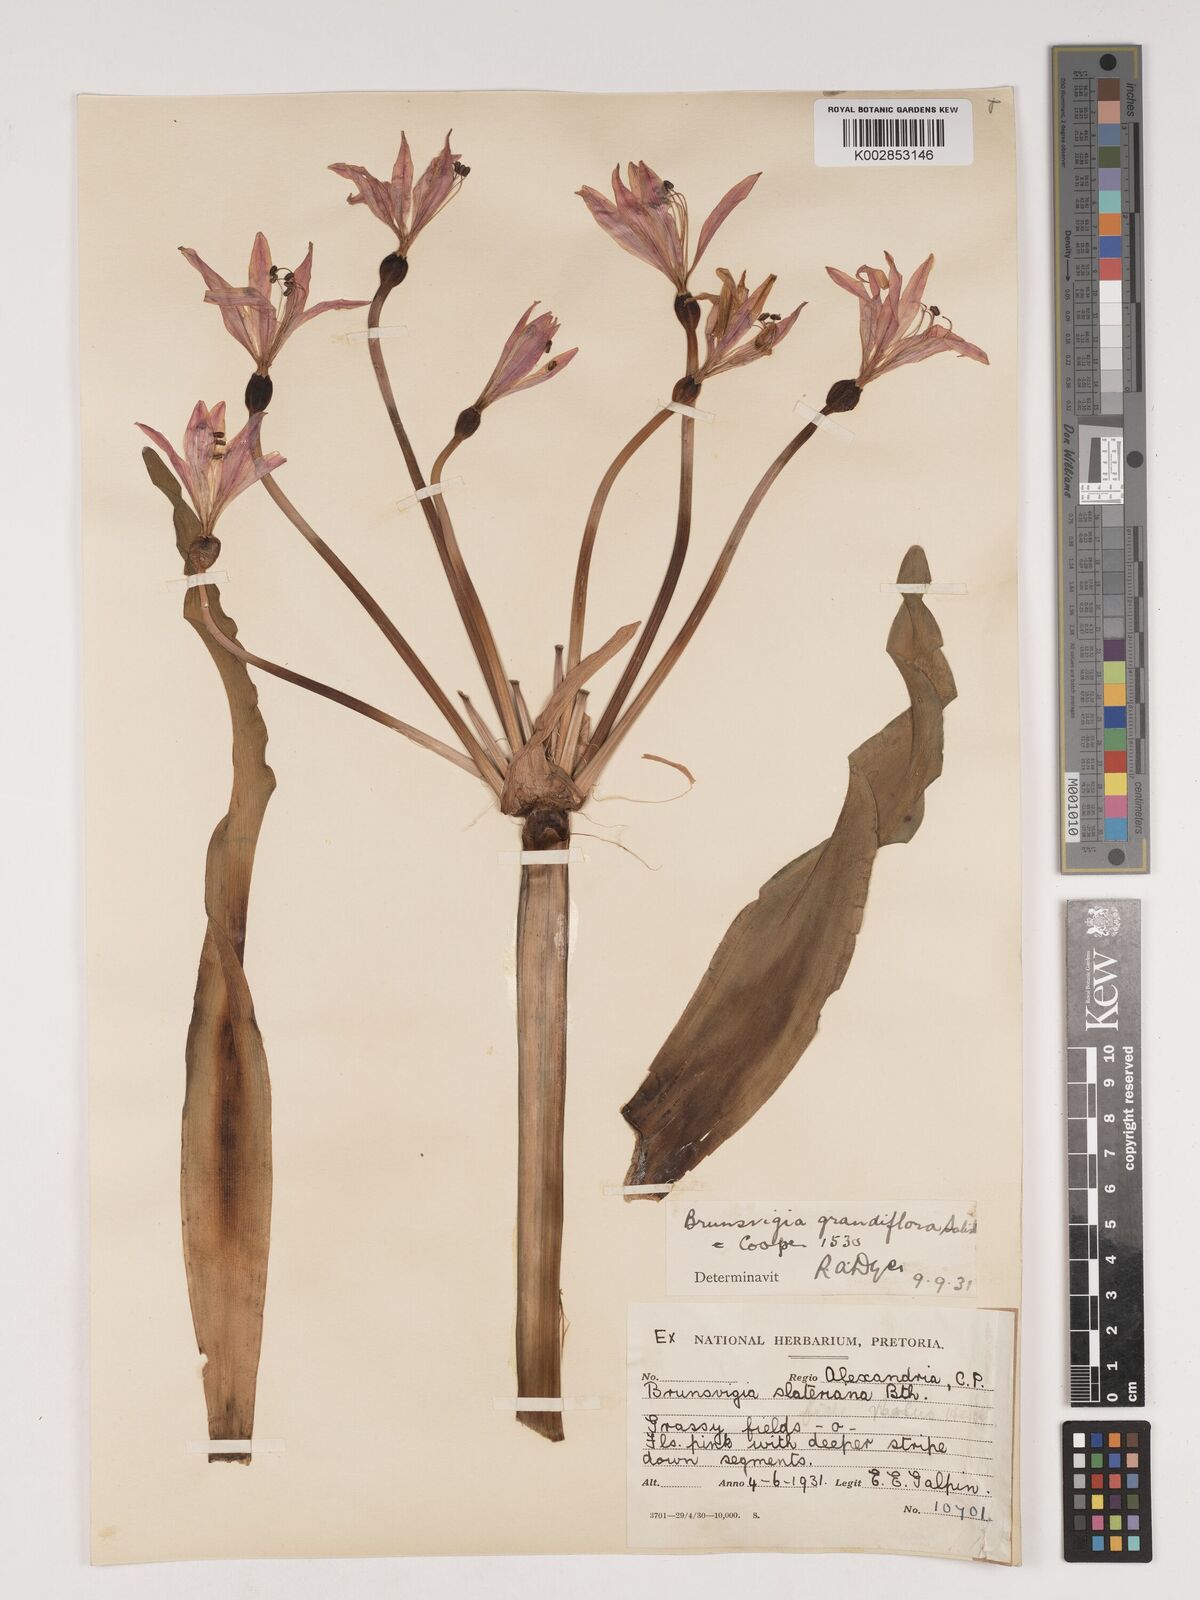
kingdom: Plantae
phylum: Tracheophyta
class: Liliopsida
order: Asparagales
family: Amaryllidaceae
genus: Brunsvigia
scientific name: Brunsvigia grandiflora
